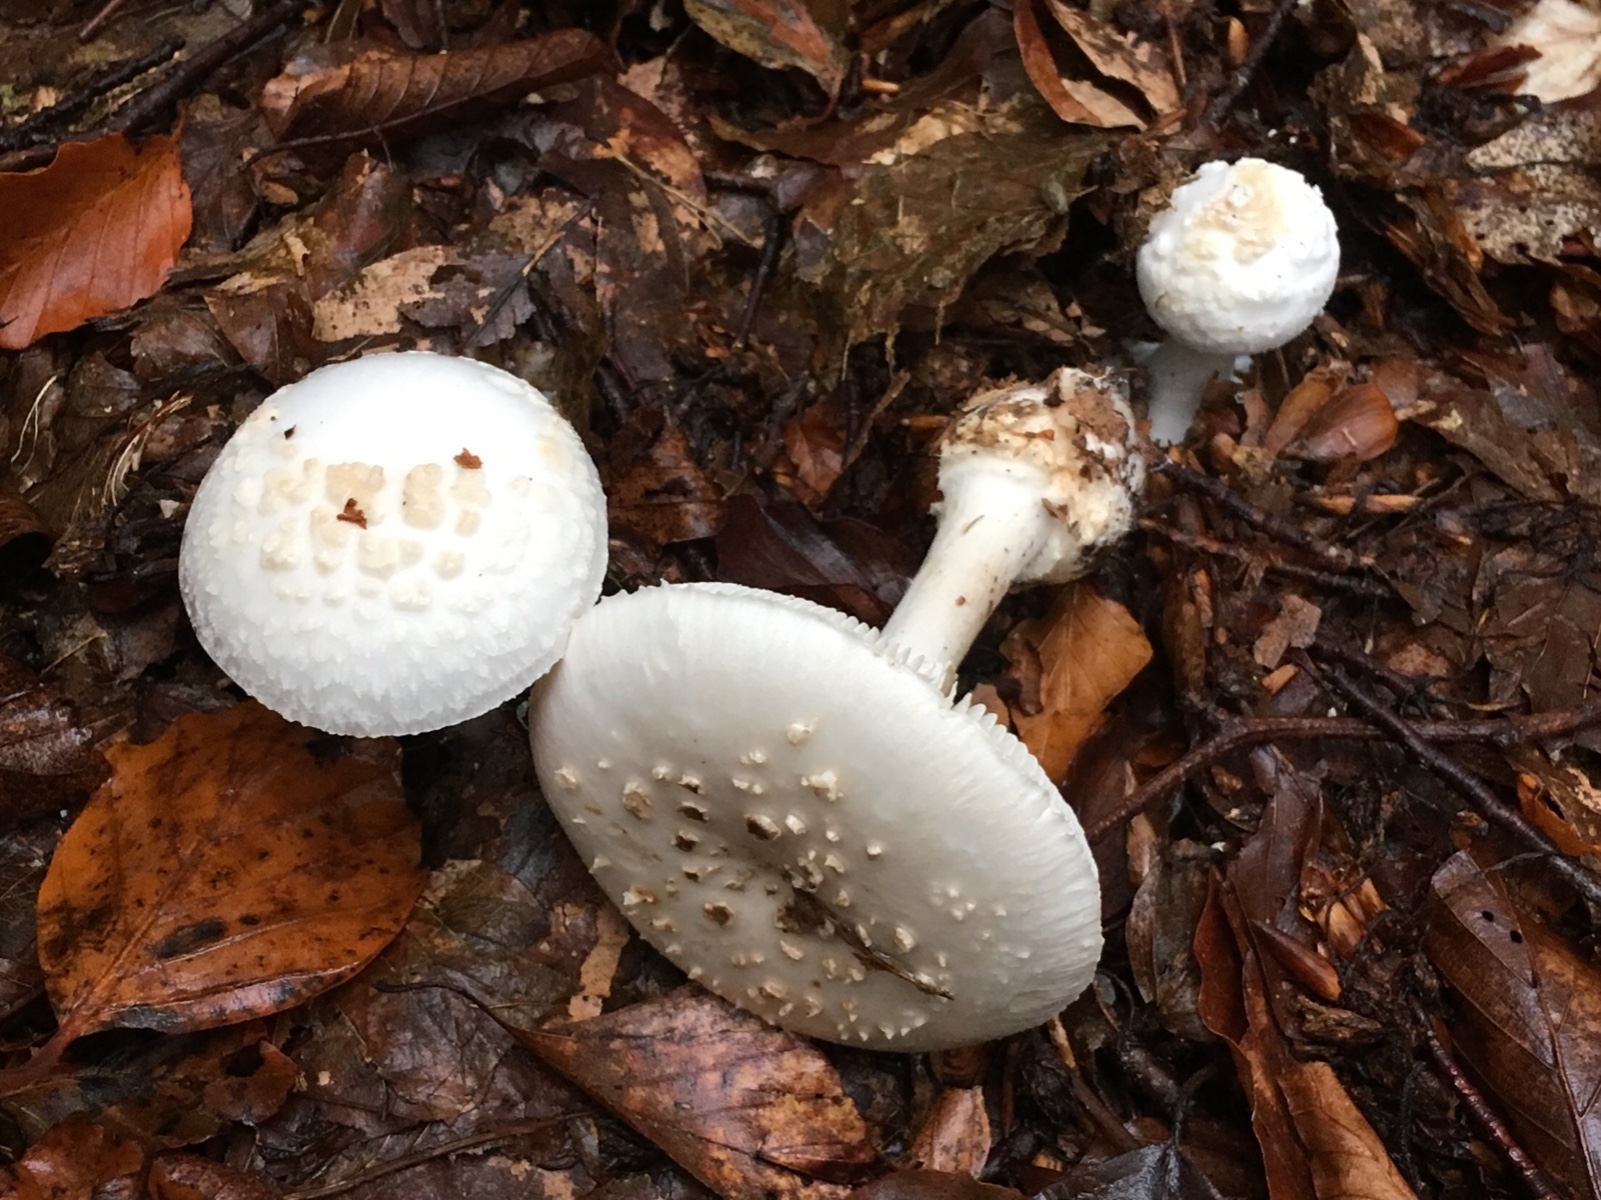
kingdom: Fungi
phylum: Basidiomycota
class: Agaricomycetes
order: Agaricales
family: Amanitaceae
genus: Amanita
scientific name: Amanita citrina
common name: False death-cap
